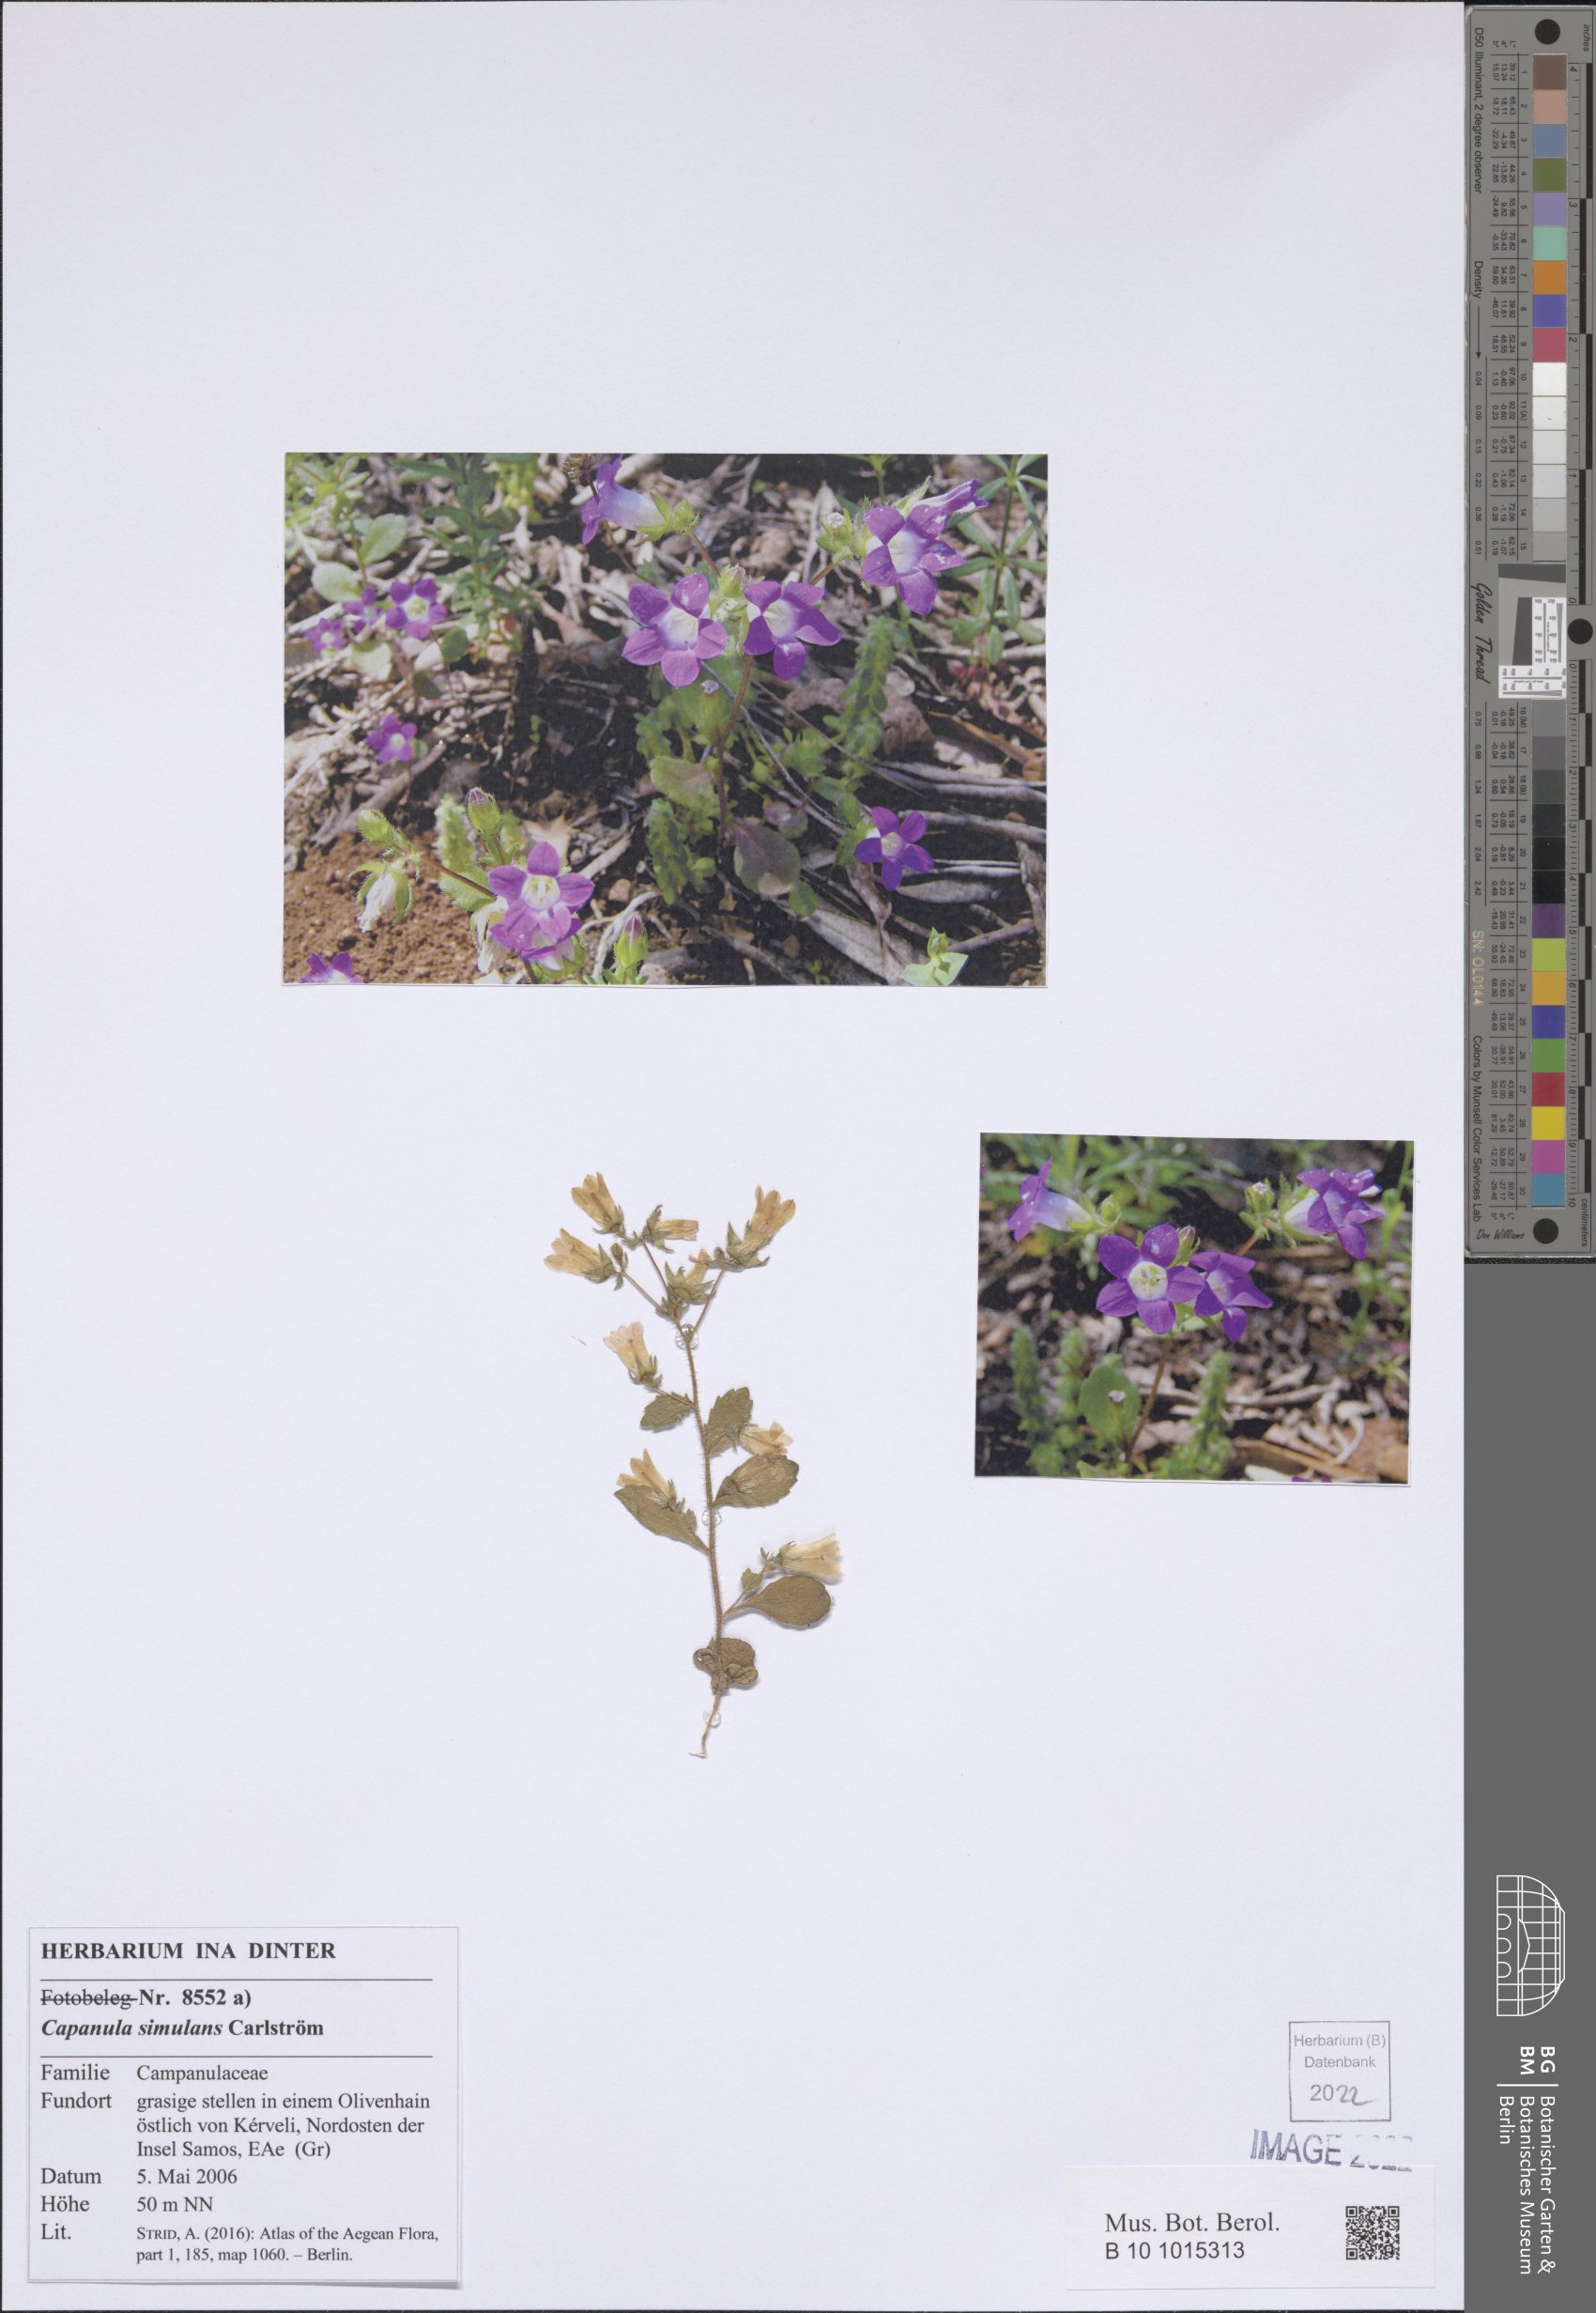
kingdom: Plantae
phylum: Tracheophyta
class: Magnoliopsida
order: Asterales
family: Campanulaceae
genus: Campanula
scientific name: Campanula simulans
